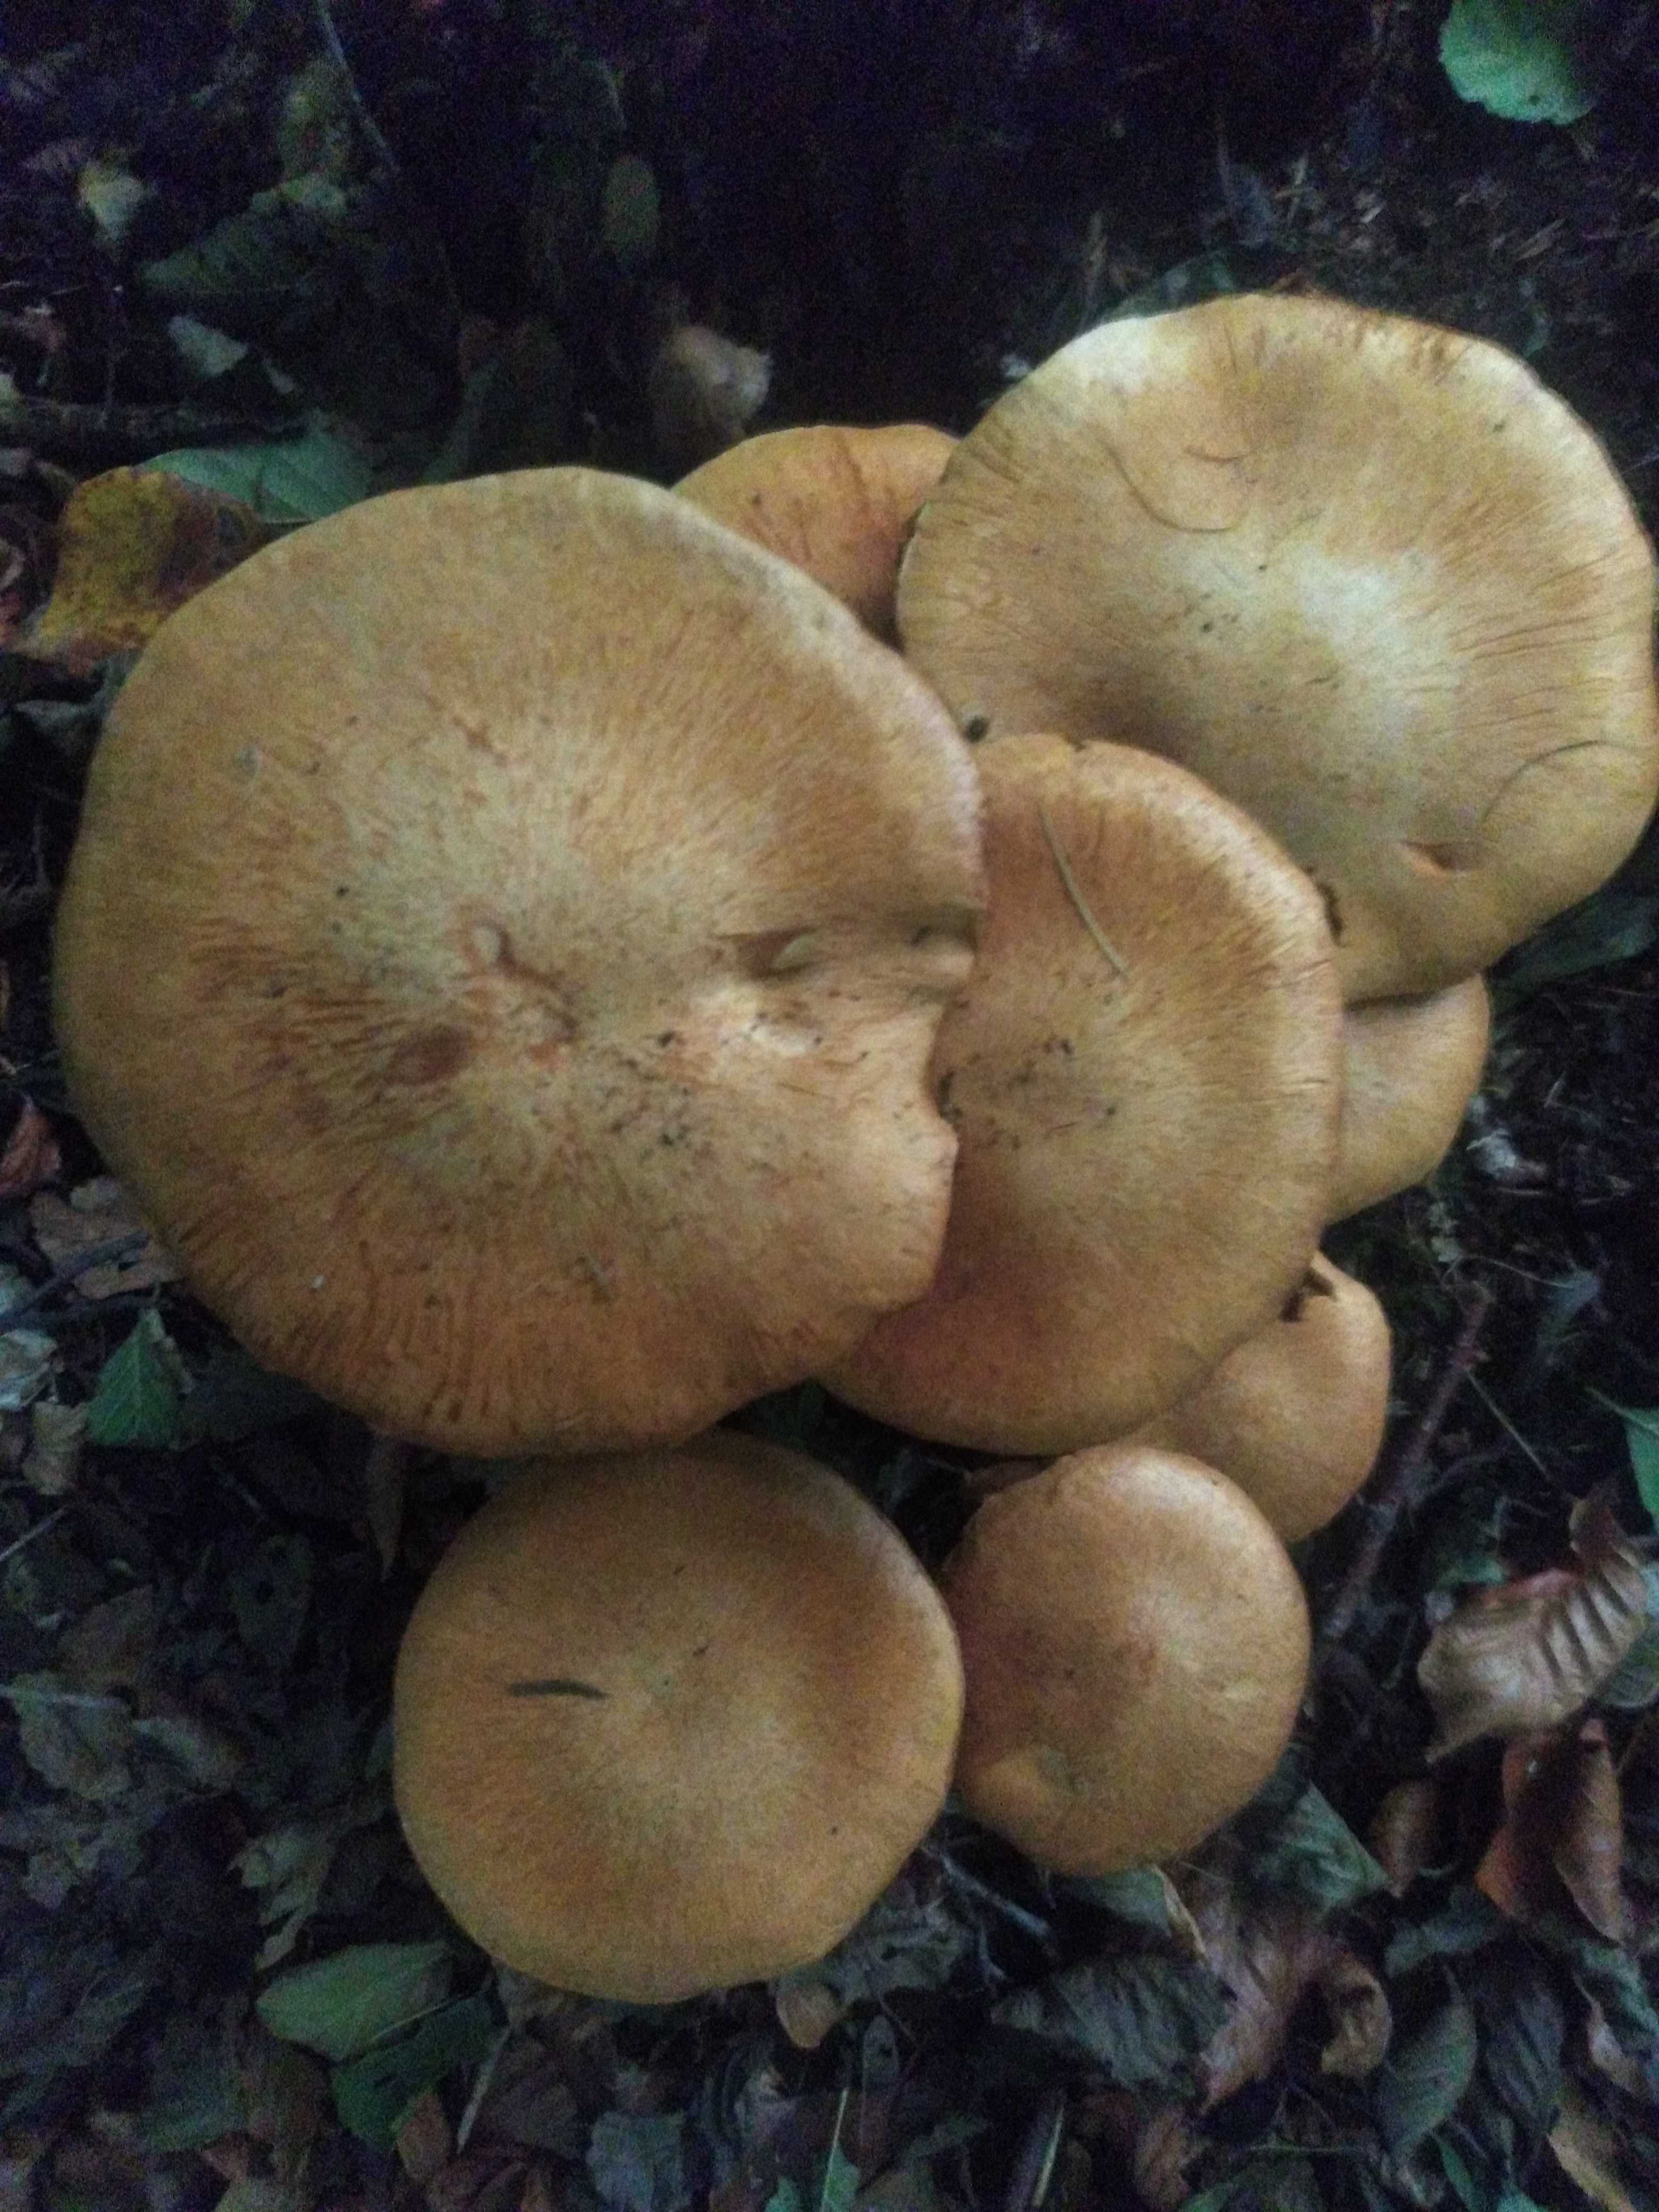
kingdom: Fungi
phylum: Basidiomycota
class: Agaricomycetes
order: Agaricales
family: Hymenogastraceae
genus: Gymnopilus
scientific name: Gymnopilus spectabilis
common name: fibret flammehat
